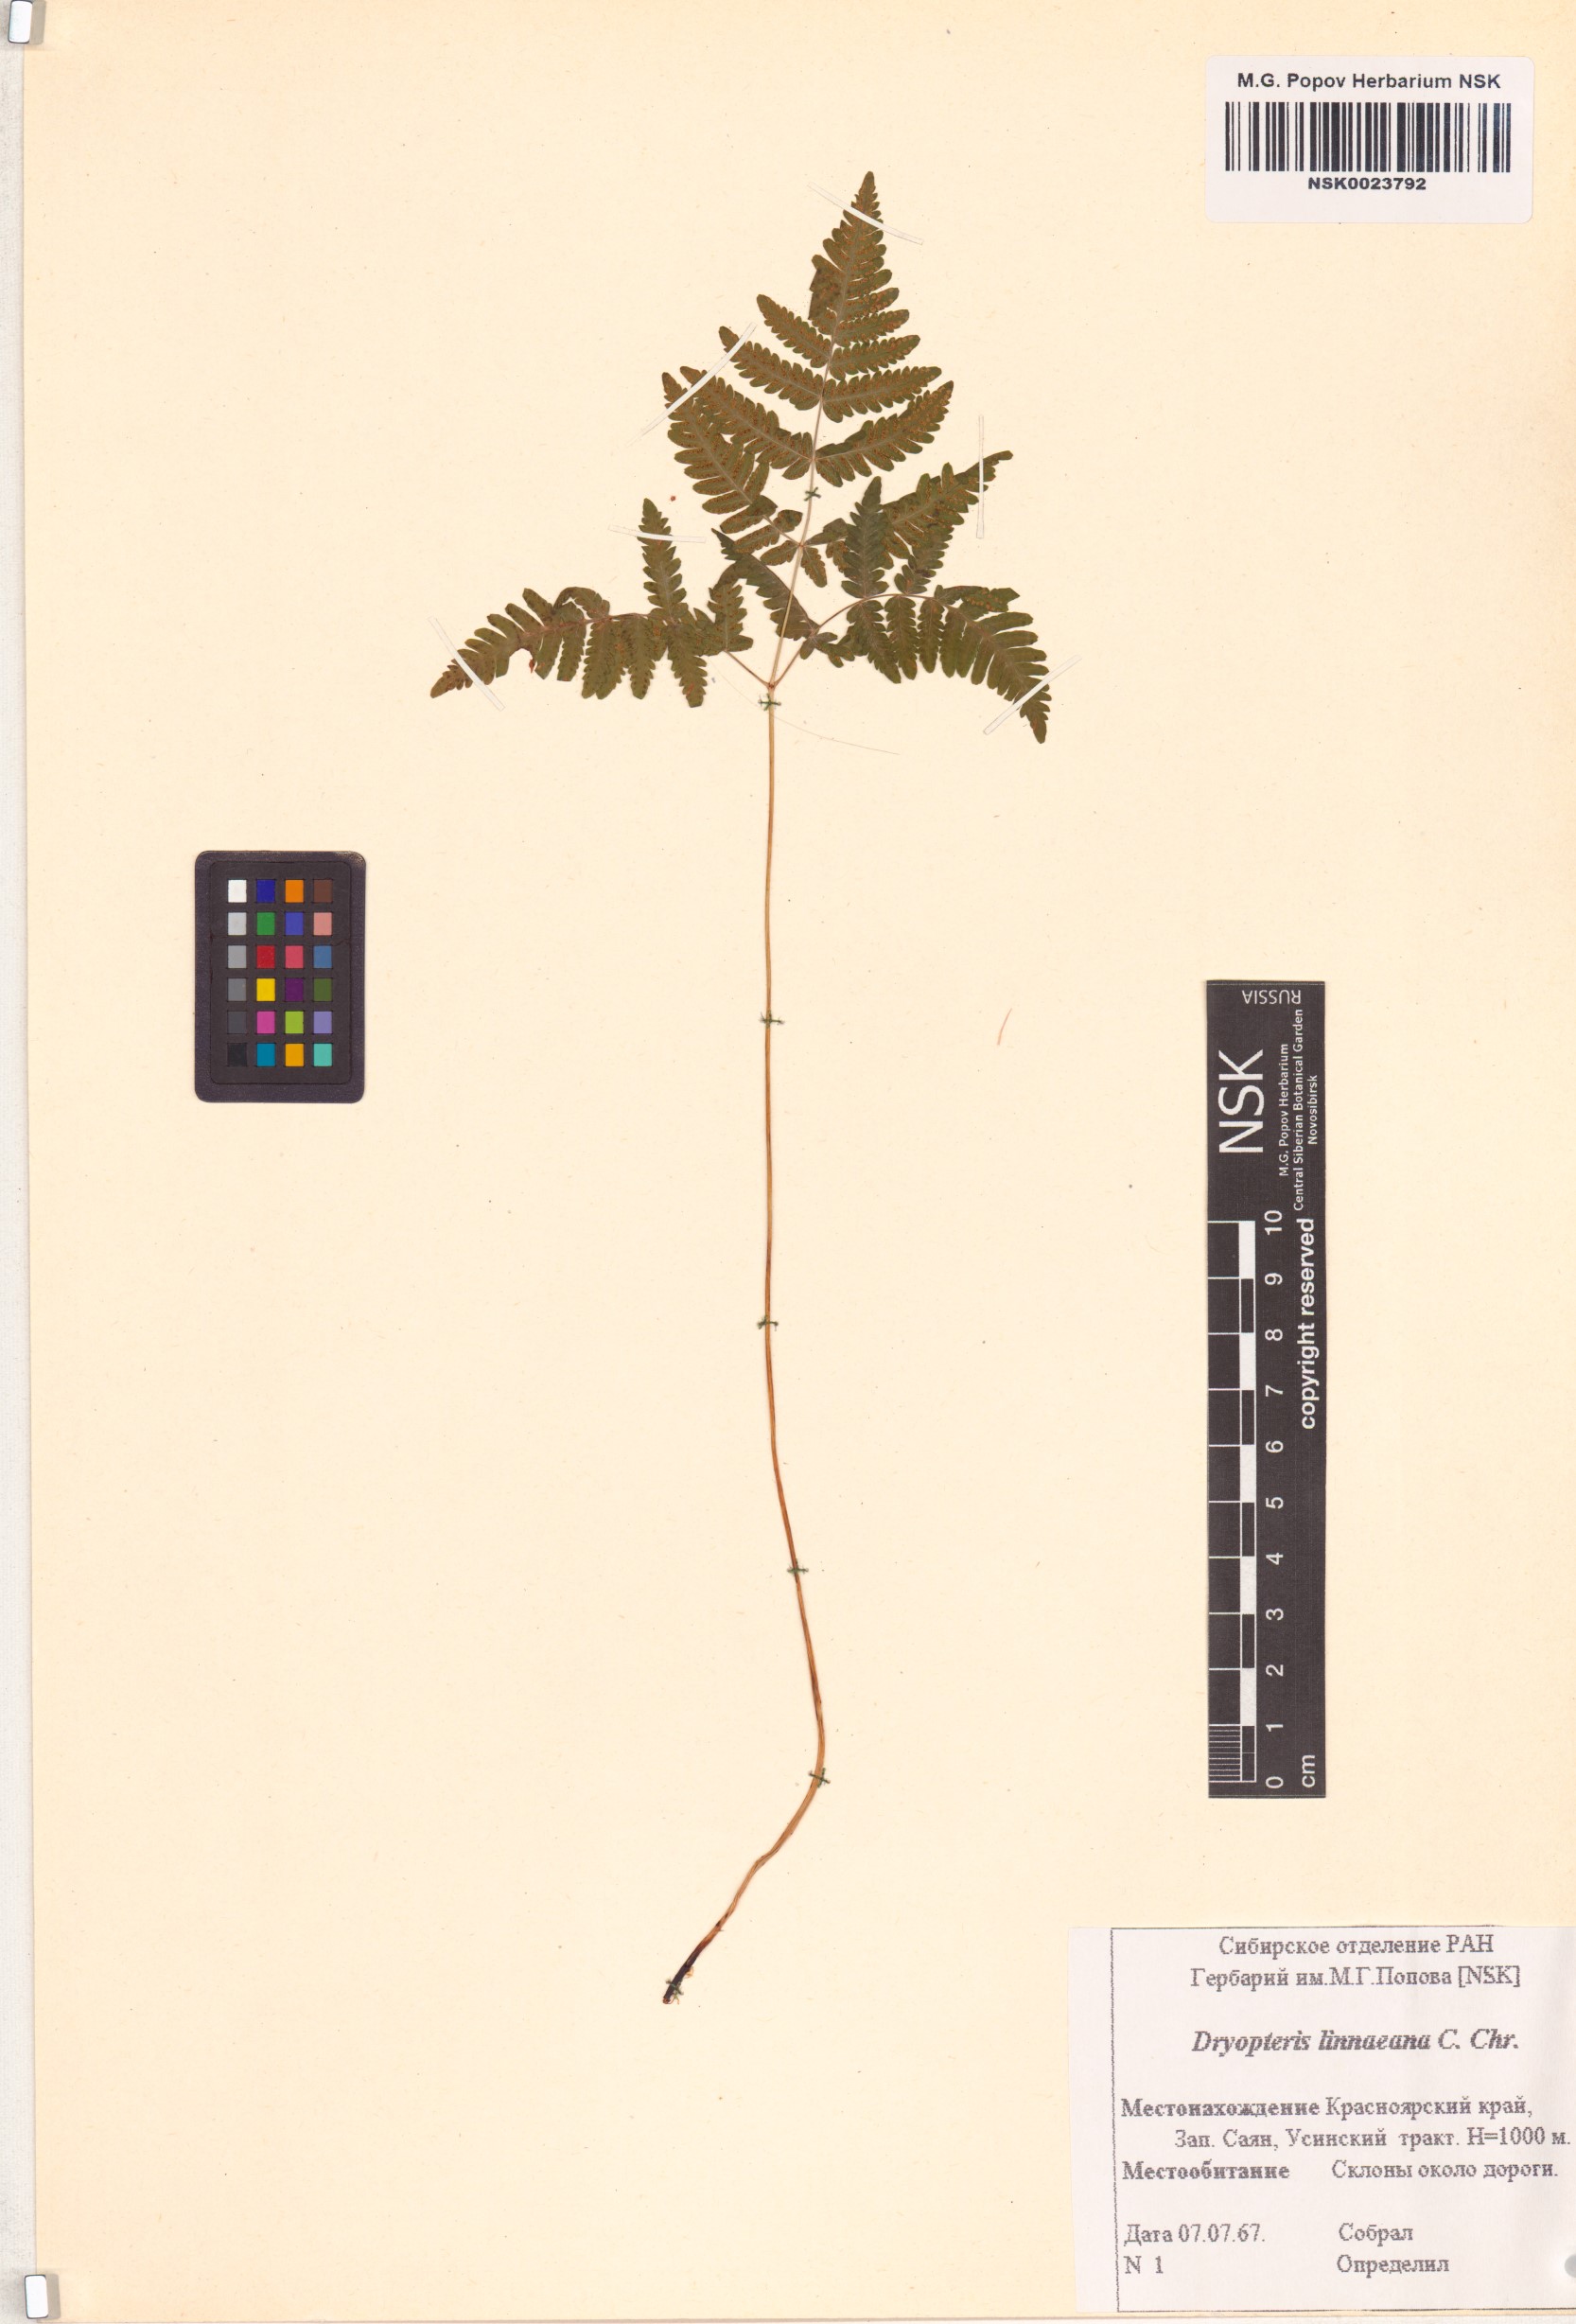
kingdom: Plantae
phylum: Tracheophyta
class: Polypodiopsida
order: Polypodiales
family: Cystopteridaceae
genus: Gymnocarpium
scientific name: Gymnocarpium dryopteris
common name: Oak fern
